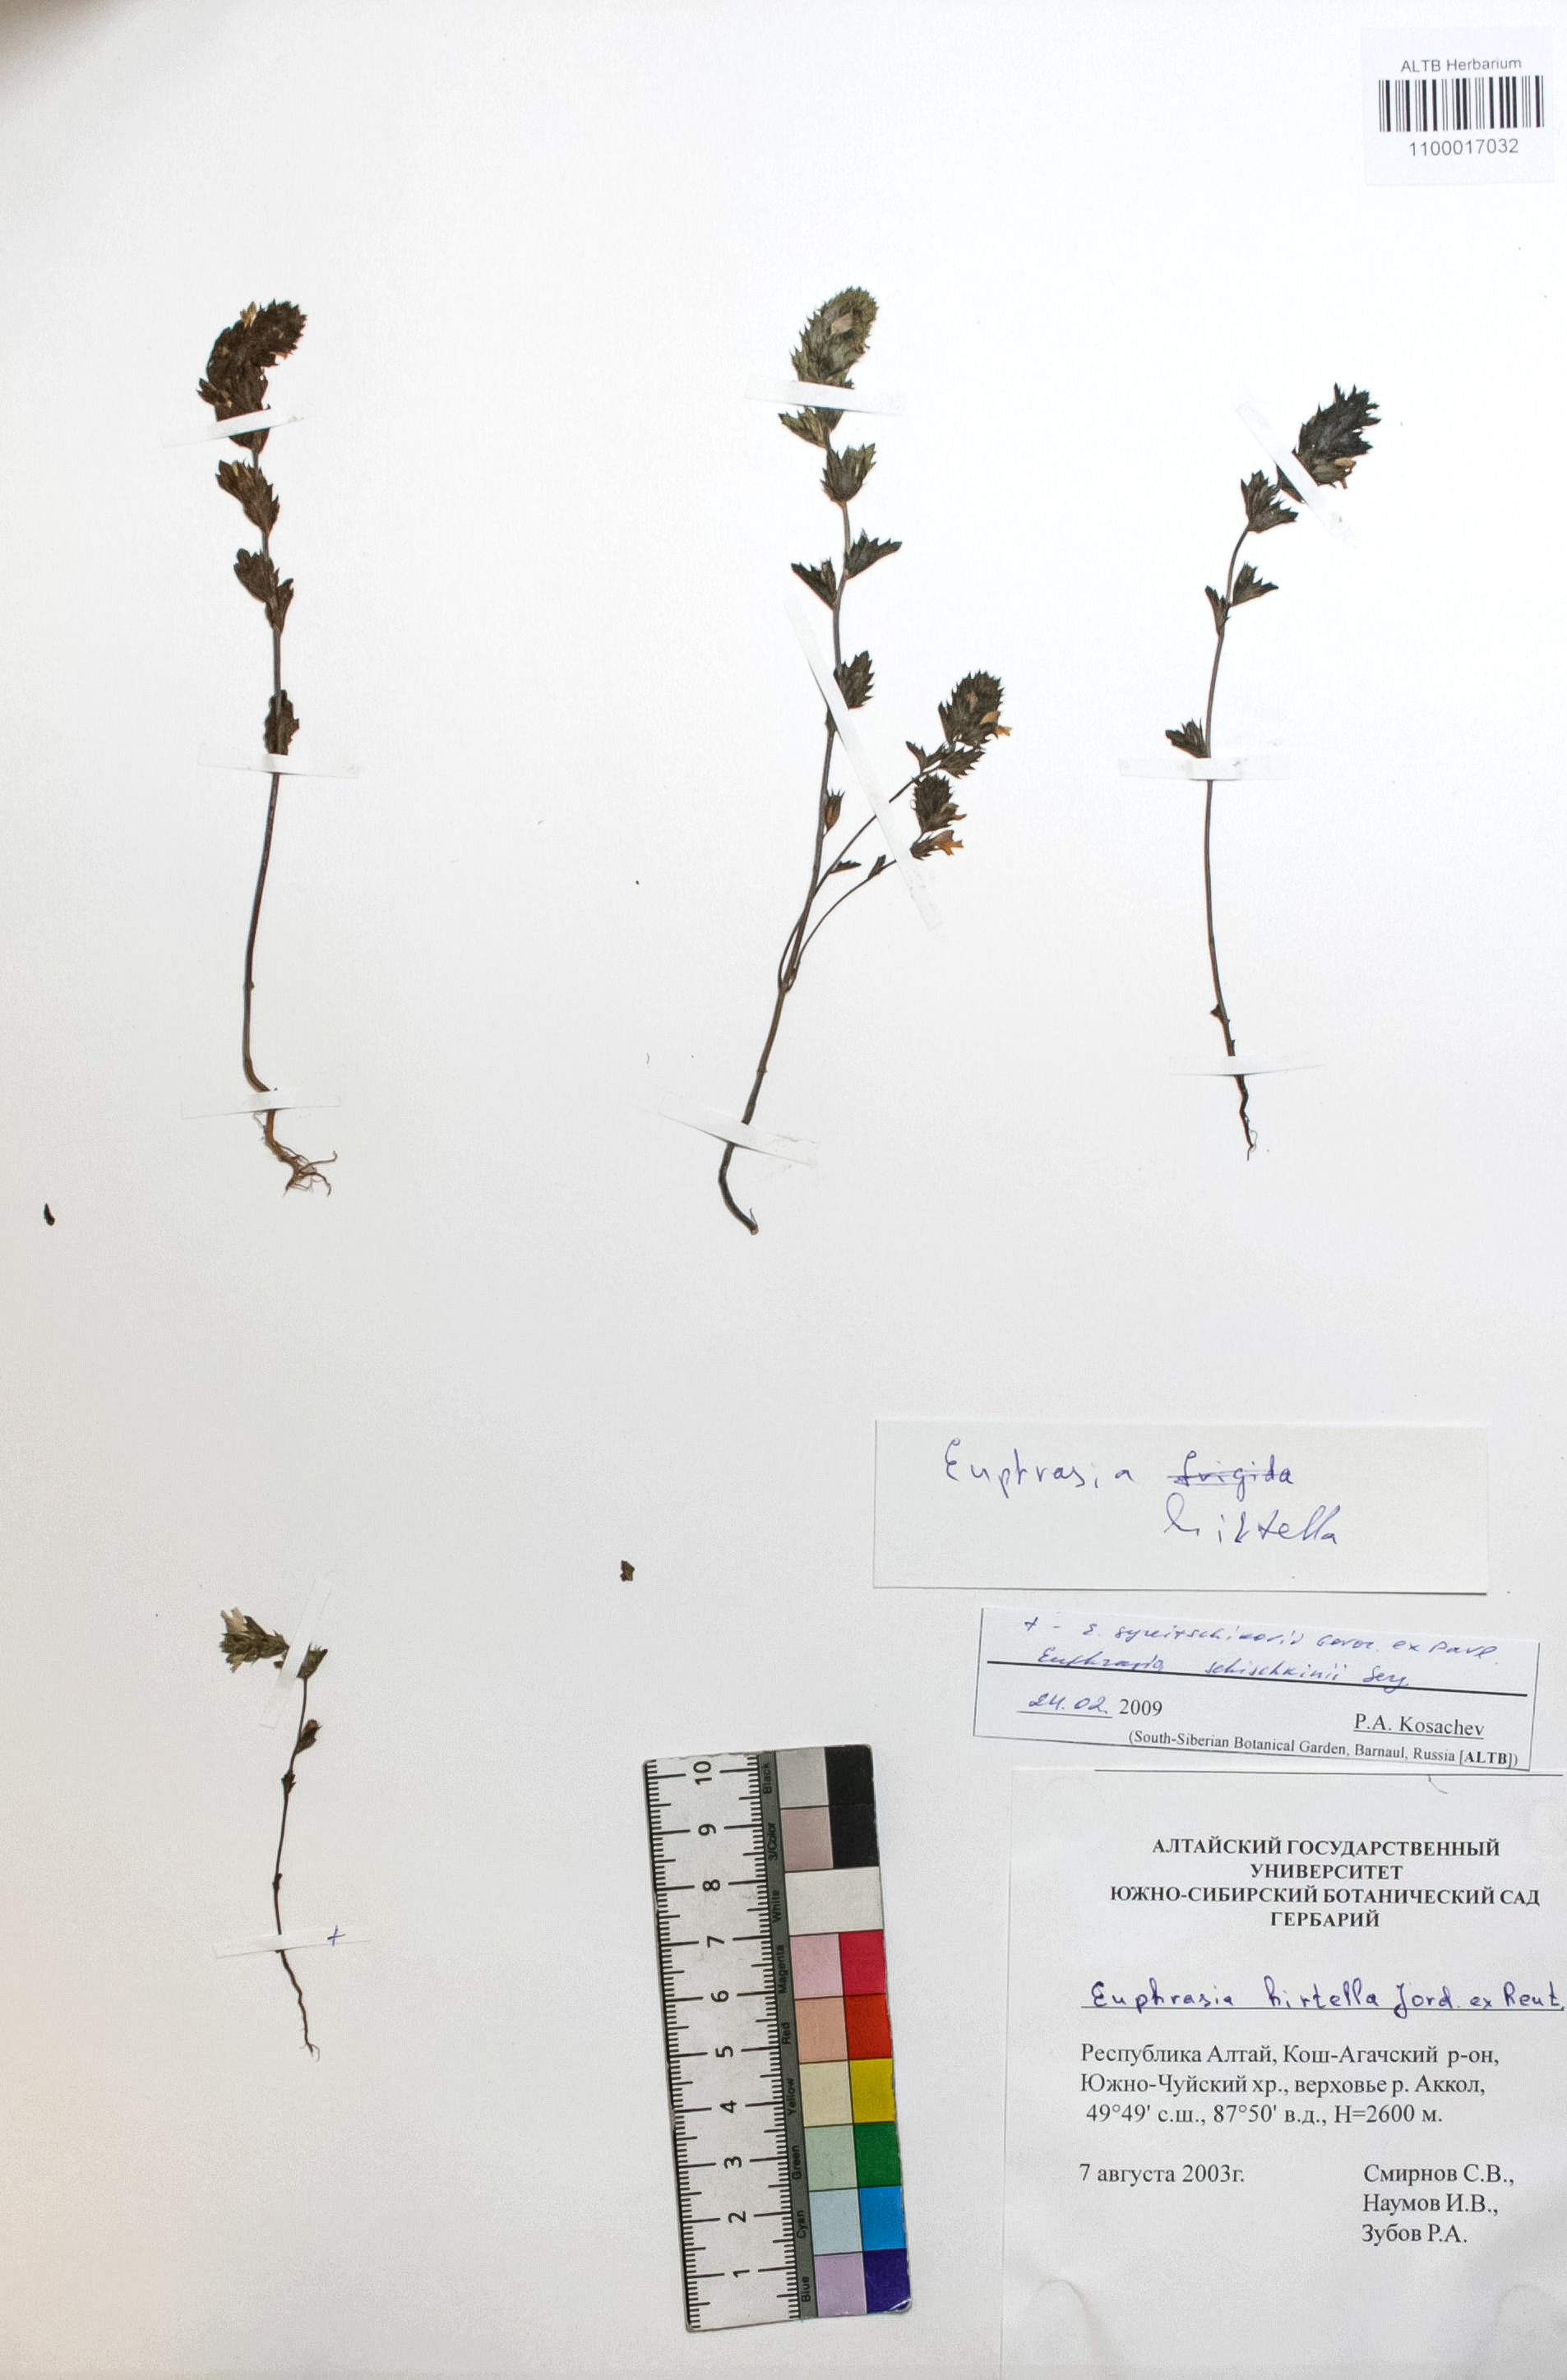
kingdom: Plantae
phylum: Tracheophyta
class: Magnoliopsida
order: Lamiales
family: Orobanchaceae
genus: Euphrasia
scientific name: Euphrasia hirtella
